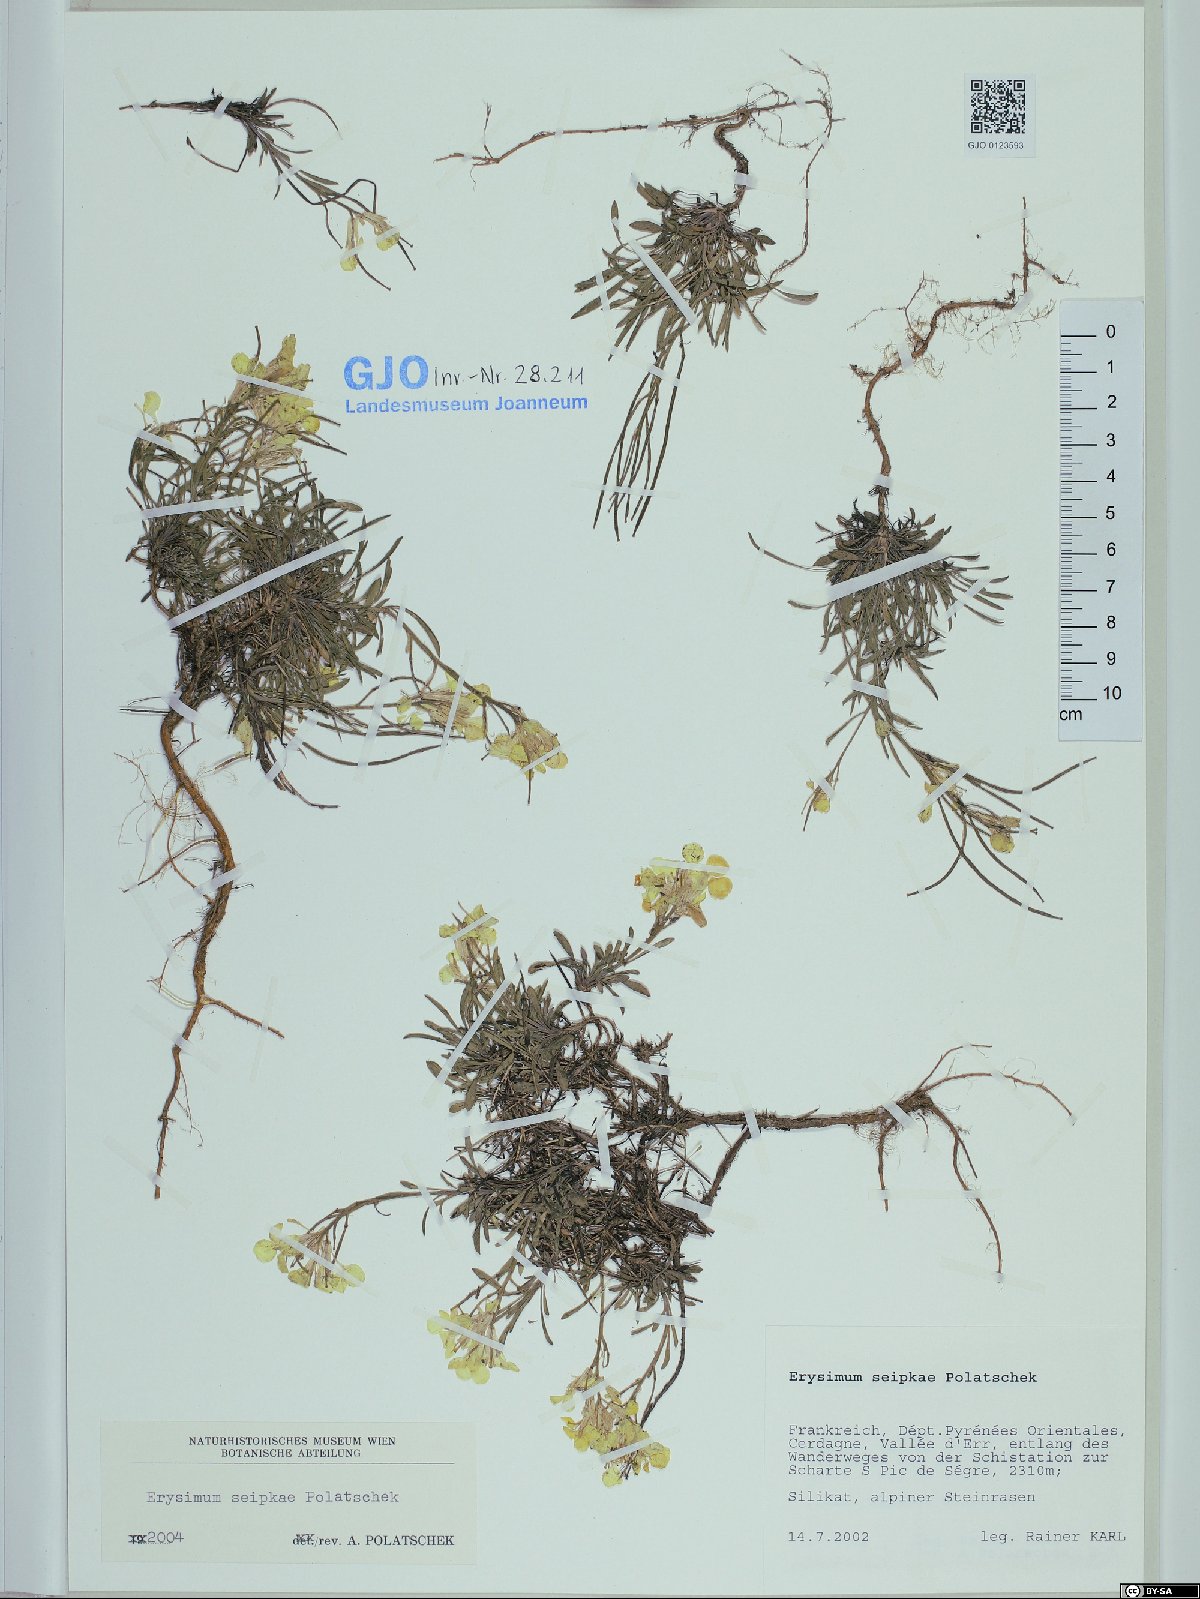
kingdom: Plantae
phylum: Tracheophyta
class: Magnoliopsida
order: Brassicales
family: Brassicaceae
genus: Erysimum
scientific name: Erysimum seipkae
